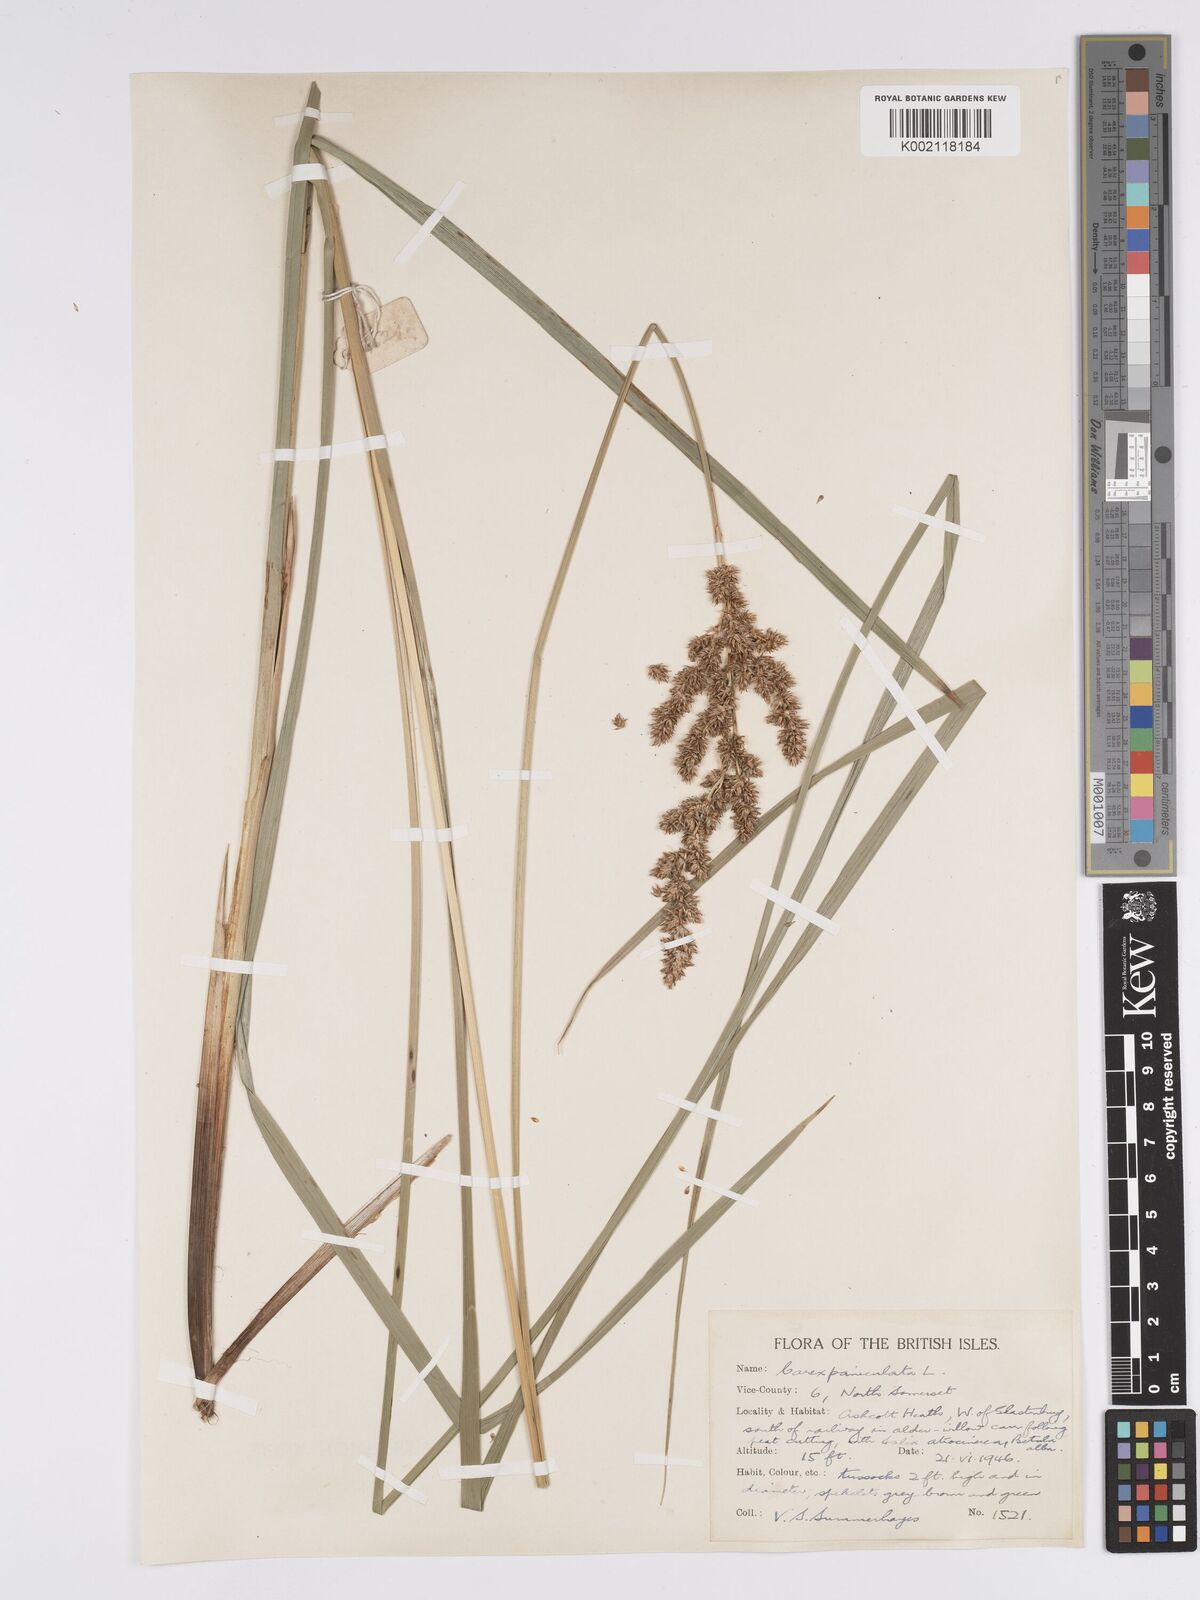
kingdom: Plantae
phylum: Tracheophyta
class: Liliopsida
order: Poales
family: Cyperaceae
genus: Carex
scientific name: Carex paniculata
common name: Greater tussock-sedge
